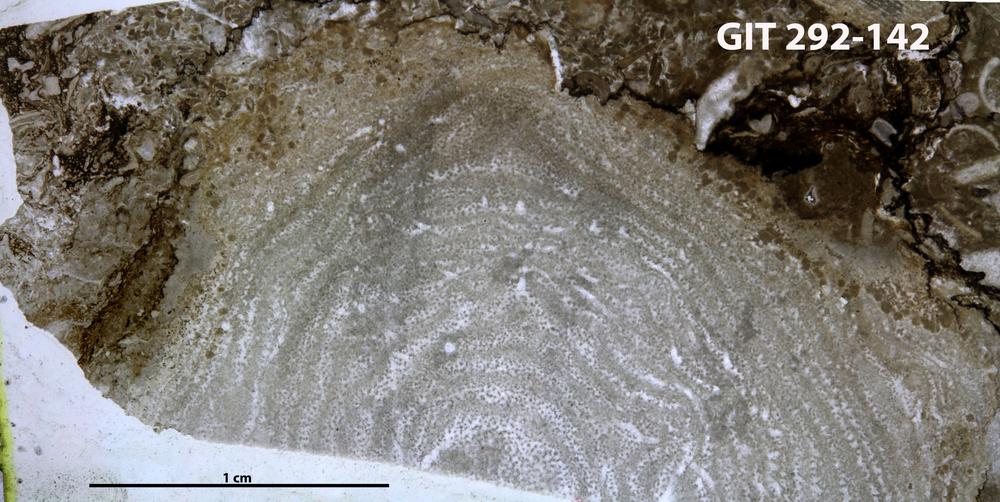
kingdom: Animalia
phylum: Porifera
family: Clathrodictyidae
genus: Clathrodictyon
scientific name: Clathrodictyon Stromatopora variolaris
